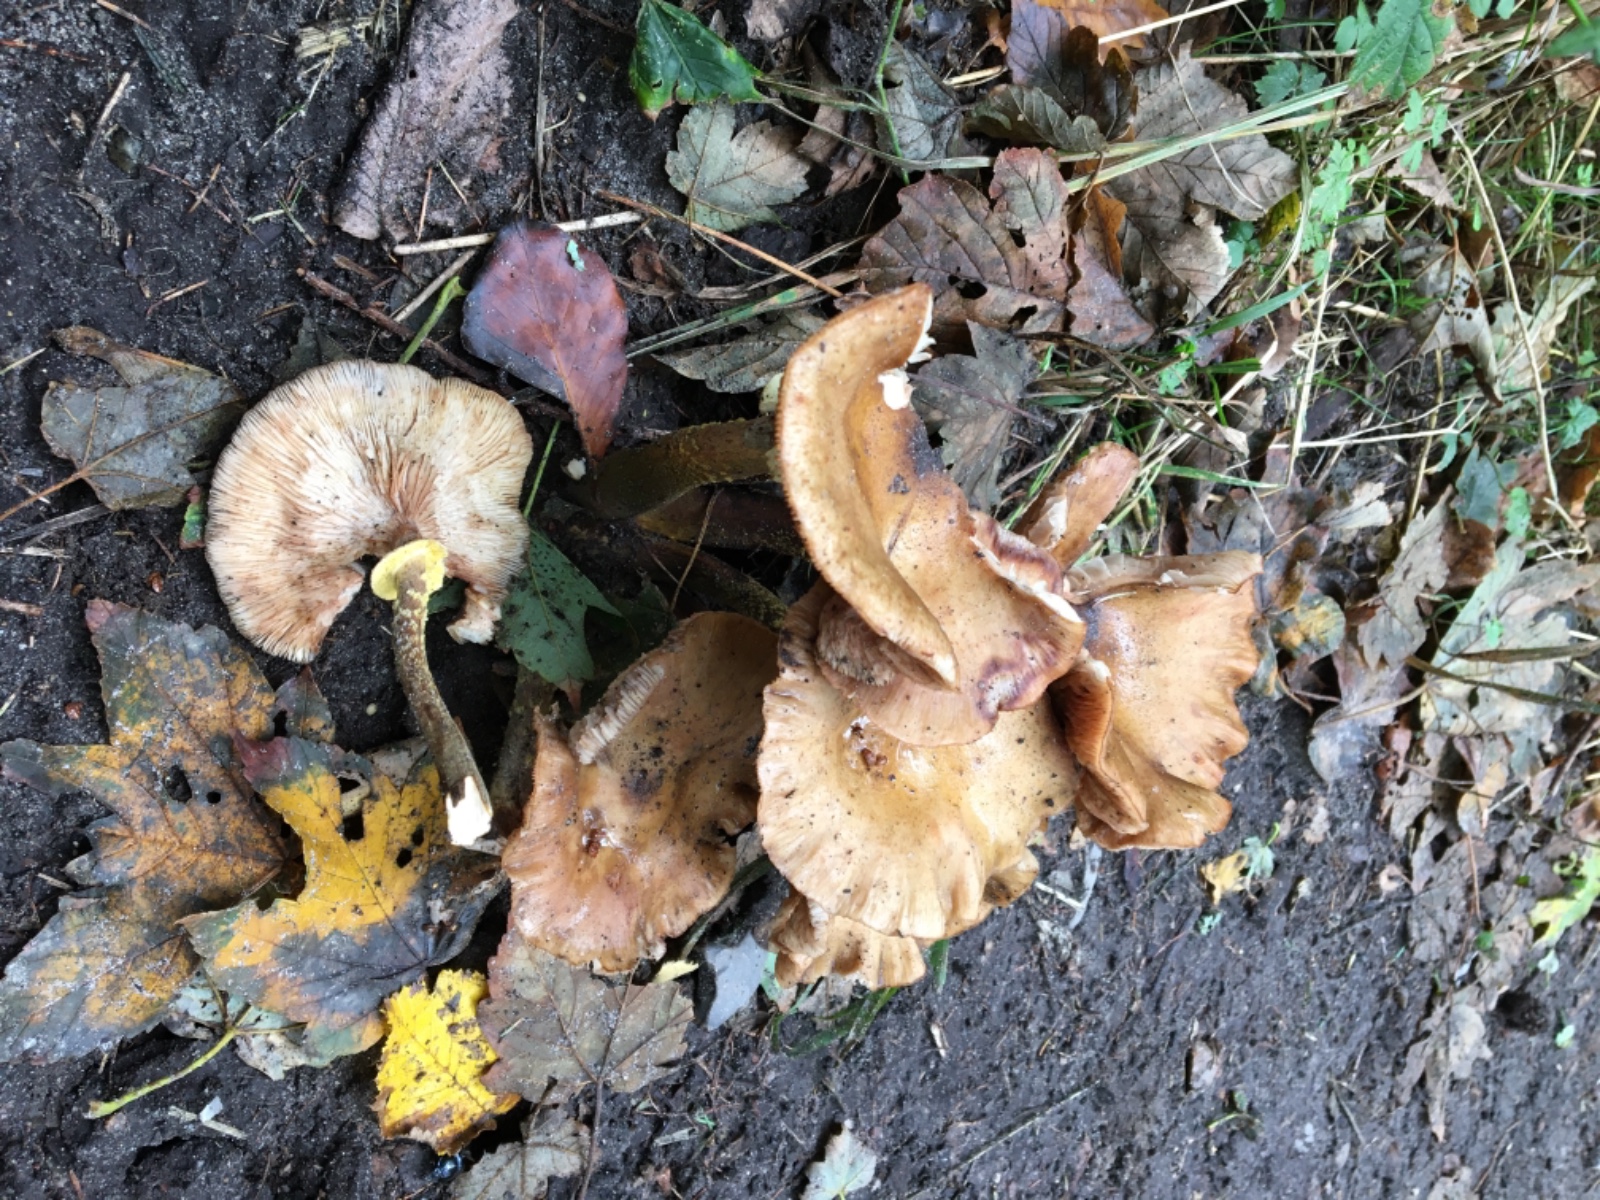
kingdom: Fungi
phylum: Basidiomycota
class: Agaricomycetes
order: Agaricales
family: Physalacriaceae
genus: Armillaria
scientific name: Armillaria mellea
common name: ægte honningsvamp
